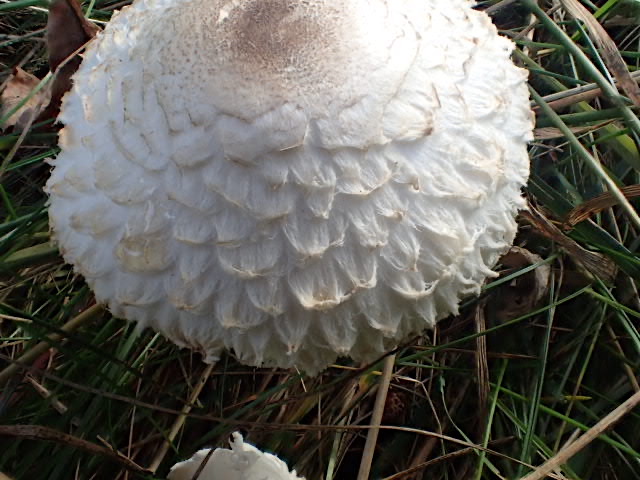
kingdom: Fungi
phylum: Basidiomycota
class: Agaricomycetes
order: Agaricales
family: Agaricaceae
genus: Leucoagaricus
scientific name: Leucoagaricus nympharum
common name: gran-silkehat
